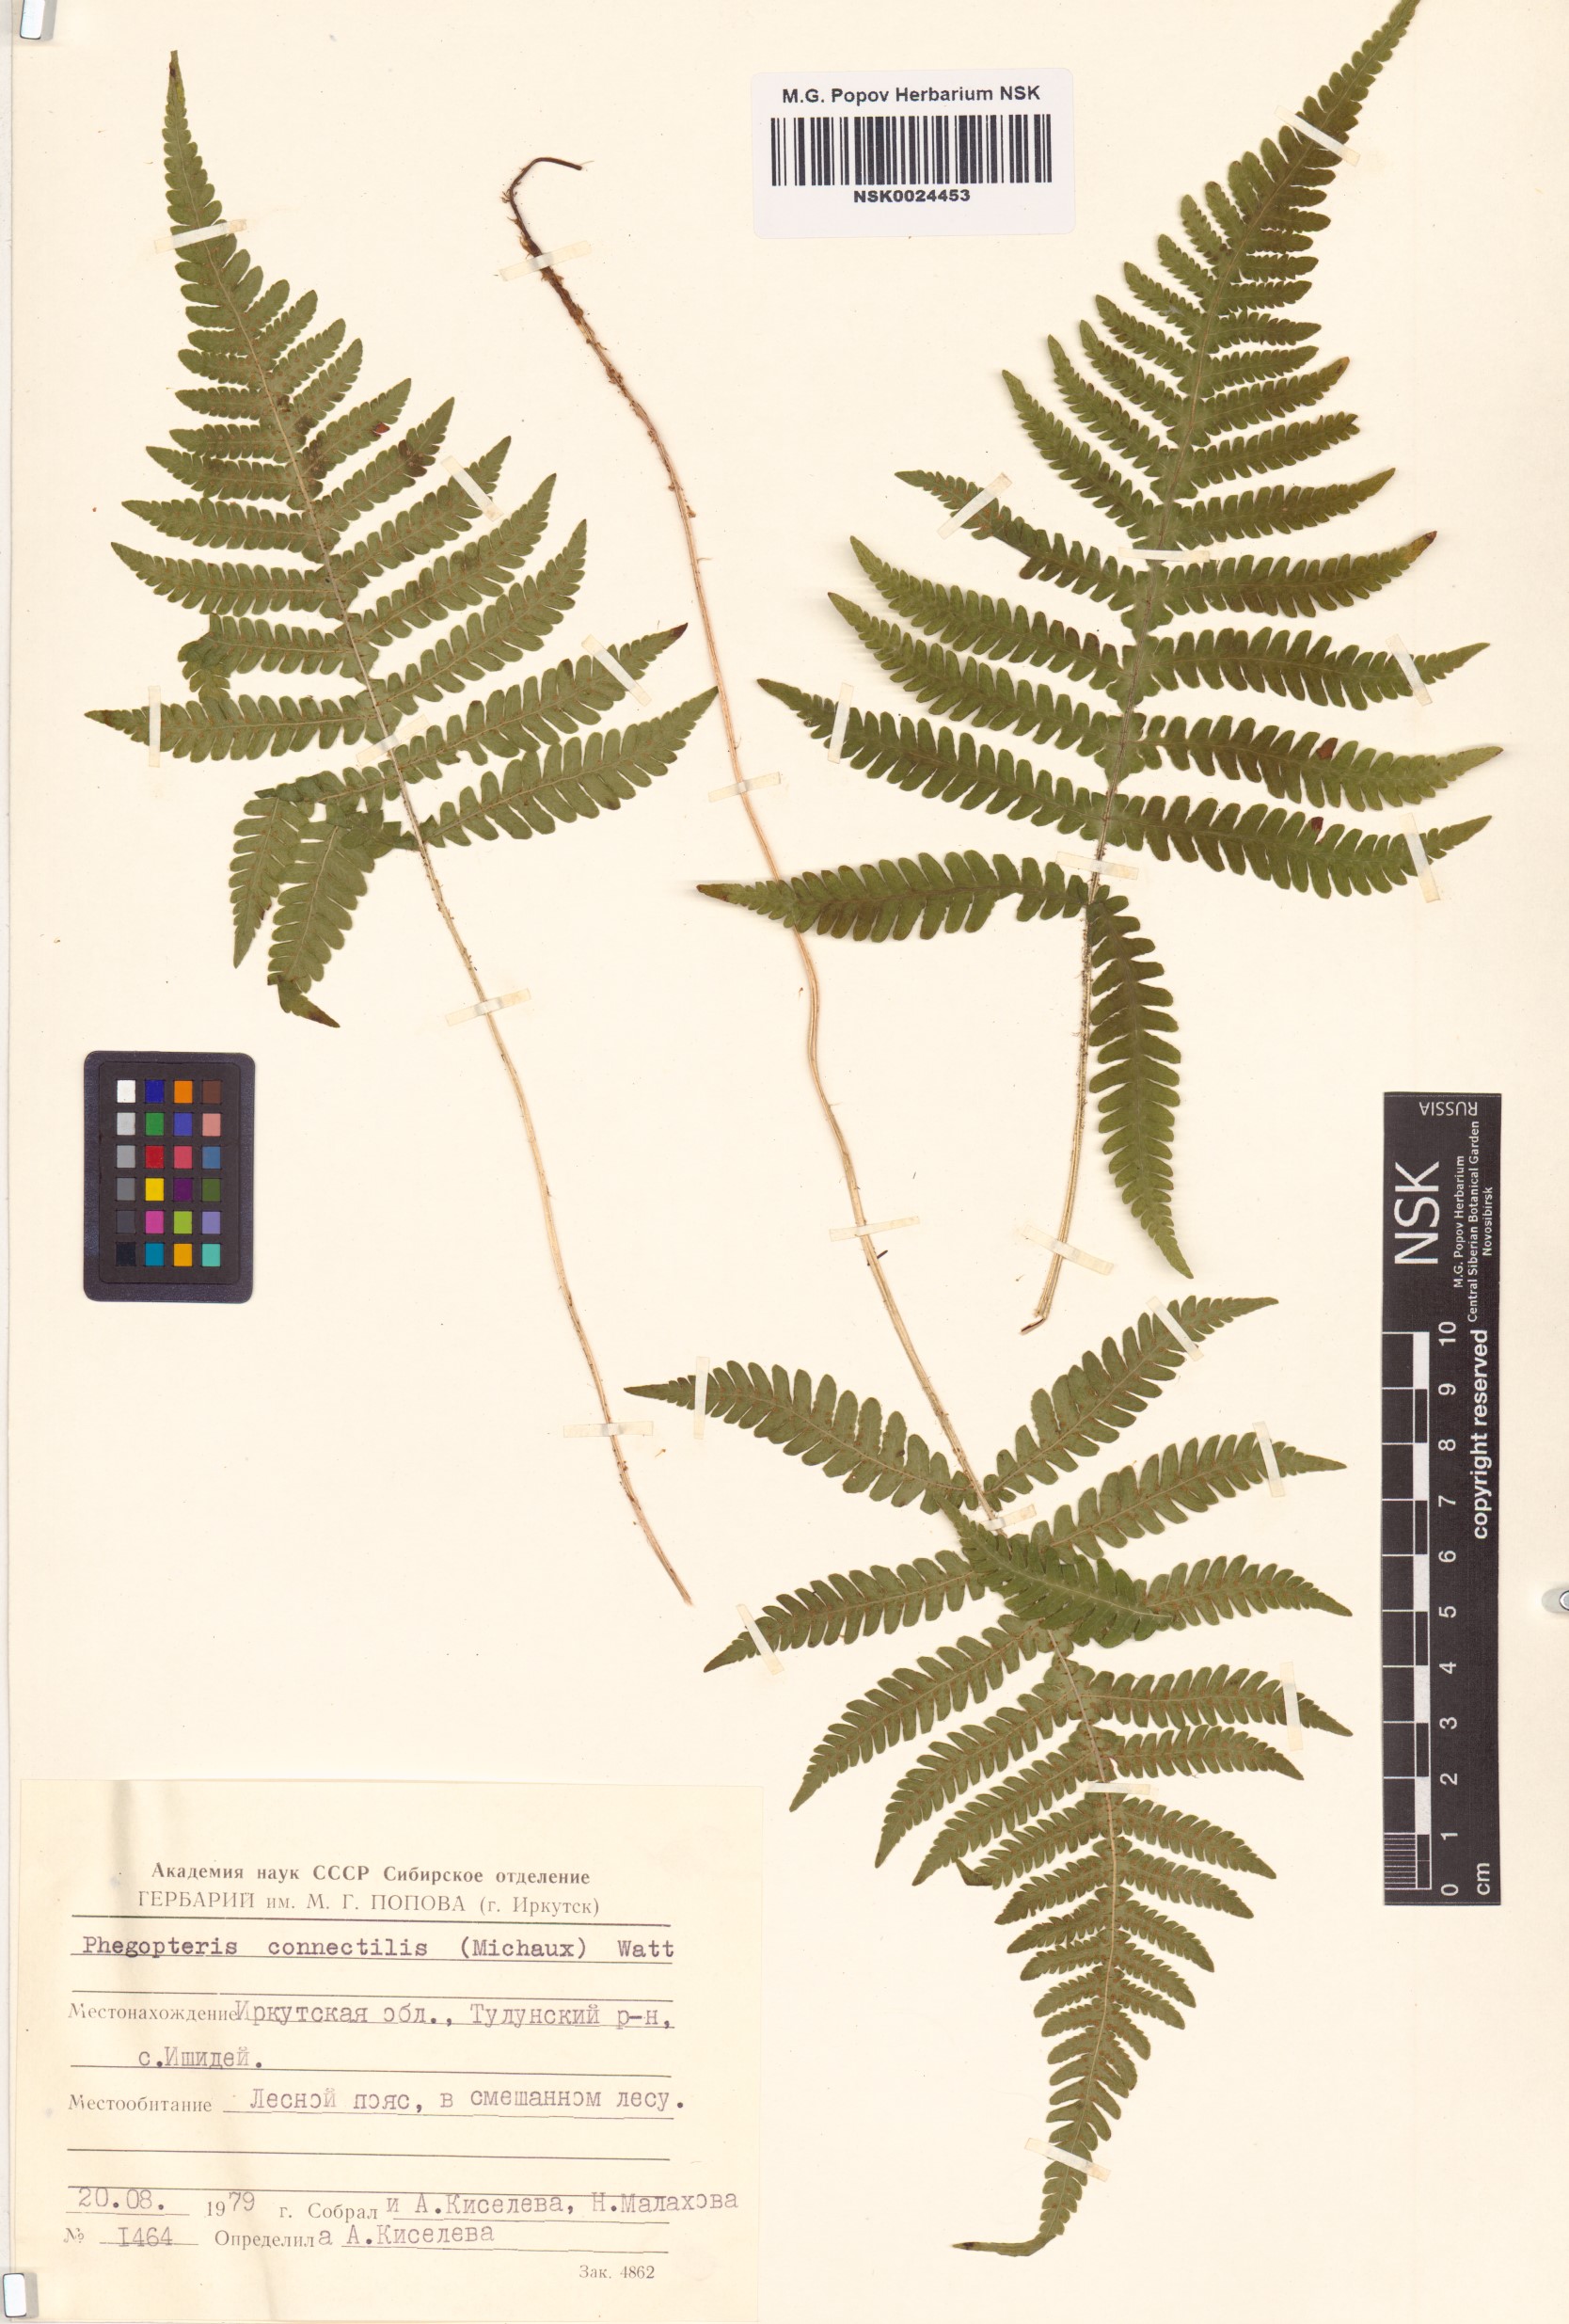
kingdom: Plantae
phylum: Tracheophyta
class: Polypodiopsida
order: Polypodiales
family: Thelypteridaceae
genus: Phegopteris
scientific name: Phegopteris connectilis
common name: Beech fern
